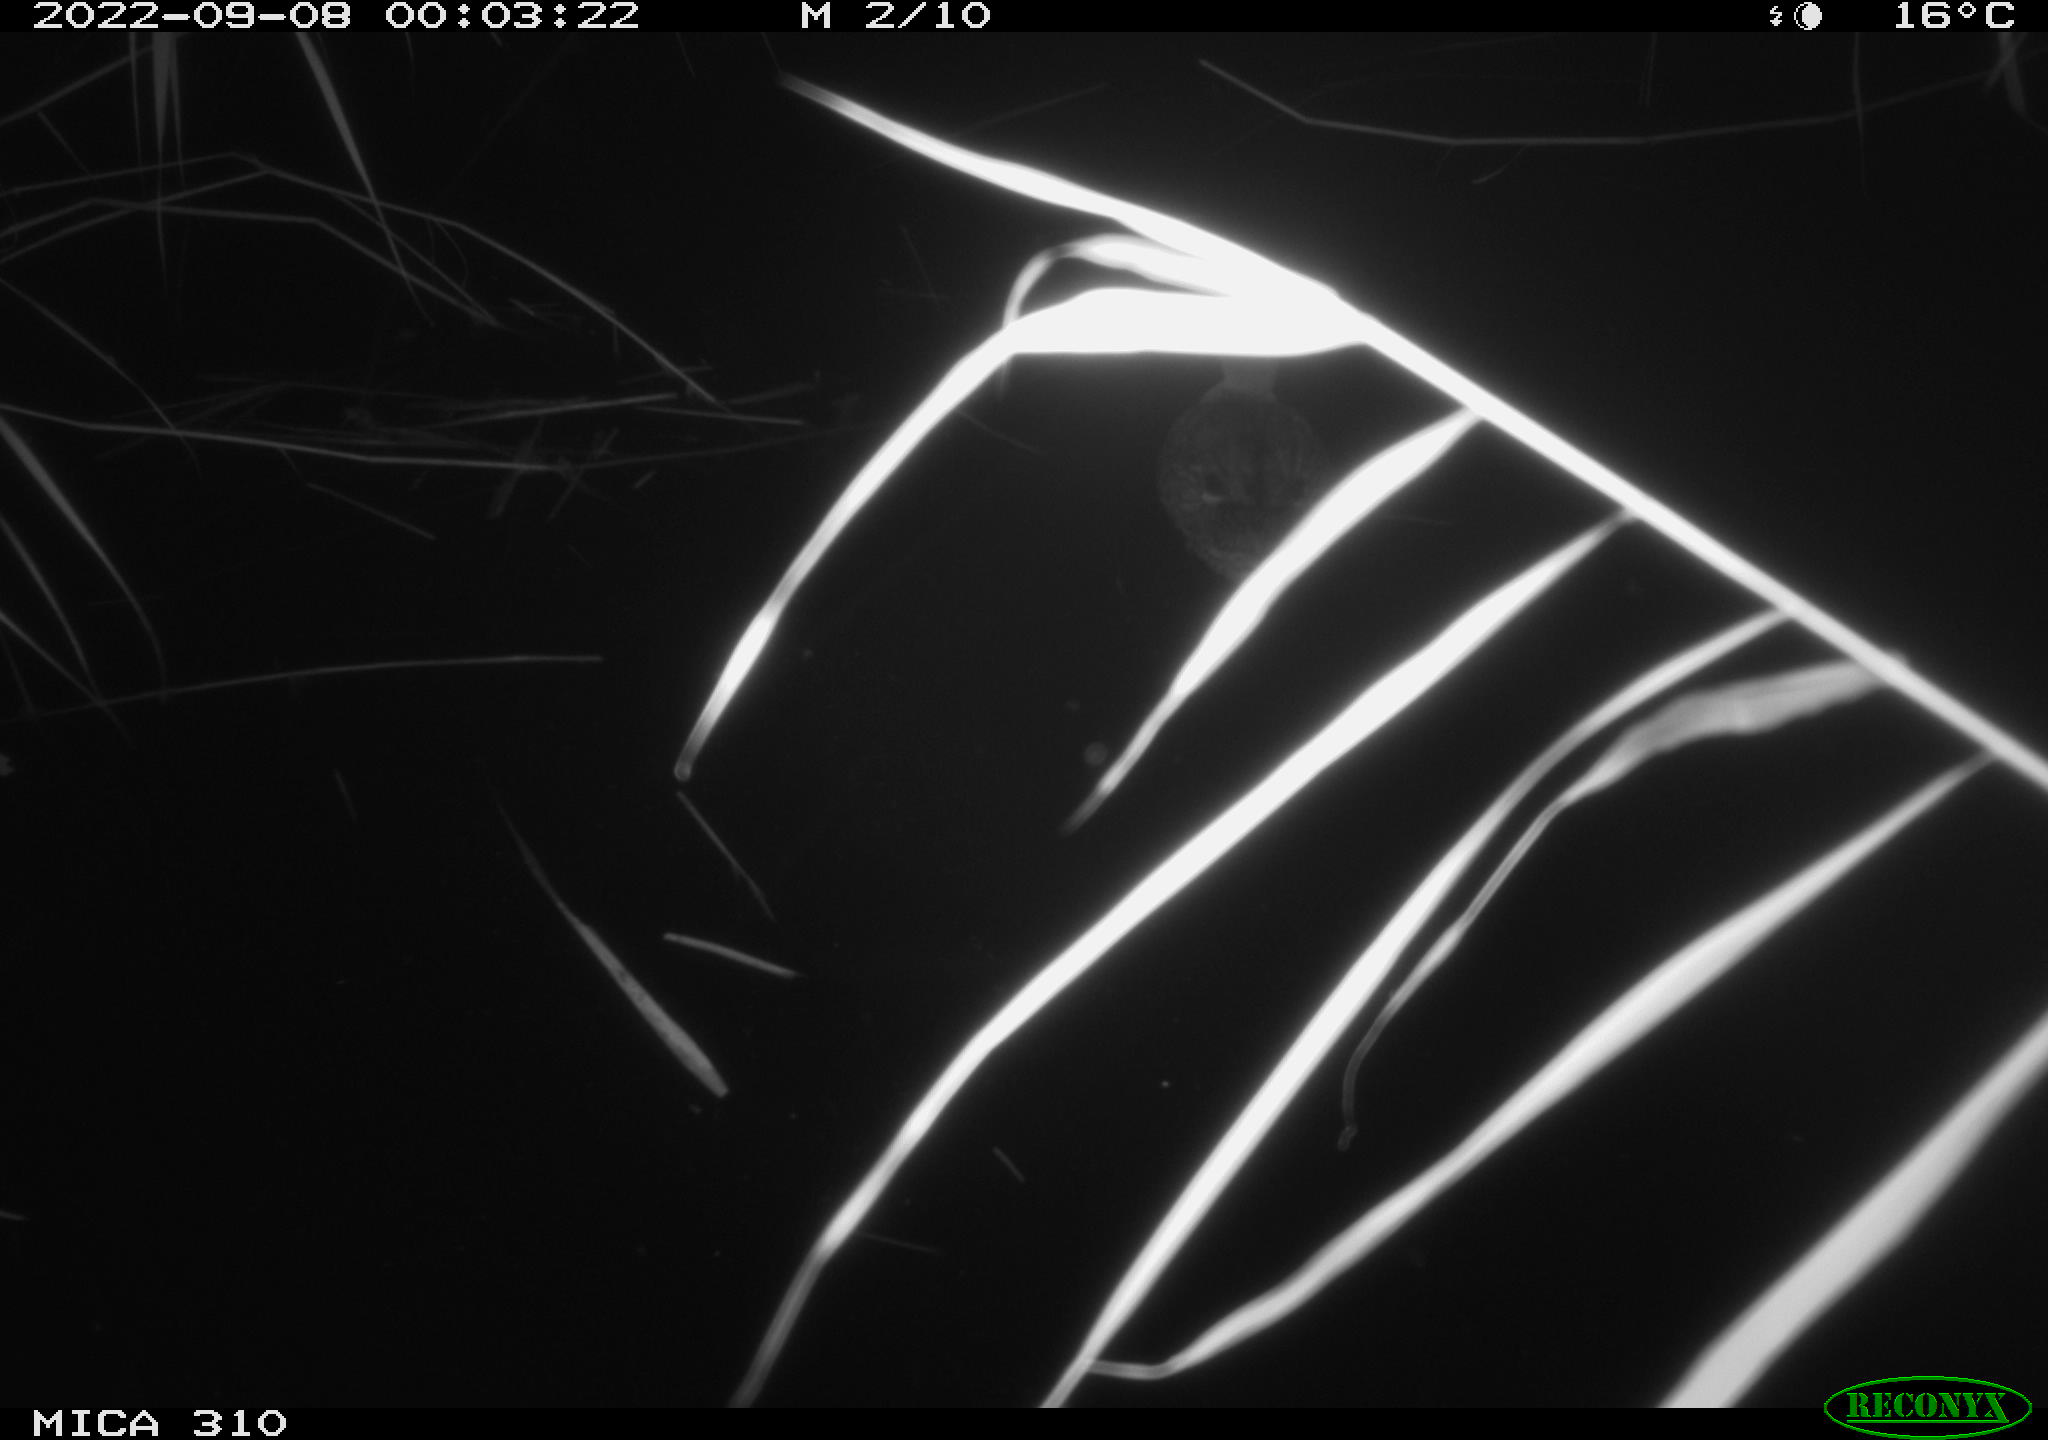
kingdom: Animalia
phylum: Chordata
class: Aves
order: Gruiformes
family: Rallidae
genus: Fulica
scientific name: Fulica atra
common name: Eurasian coot
